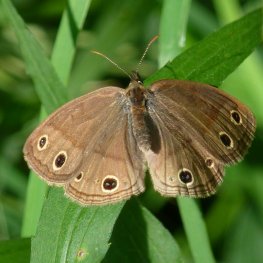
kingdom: Animalia
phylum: Arthropoda
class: Insecta
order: Lepidoptera
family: Nymphalidae
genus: Euptychia
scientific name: Euptychia cymela
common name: Little Wood Satyr
